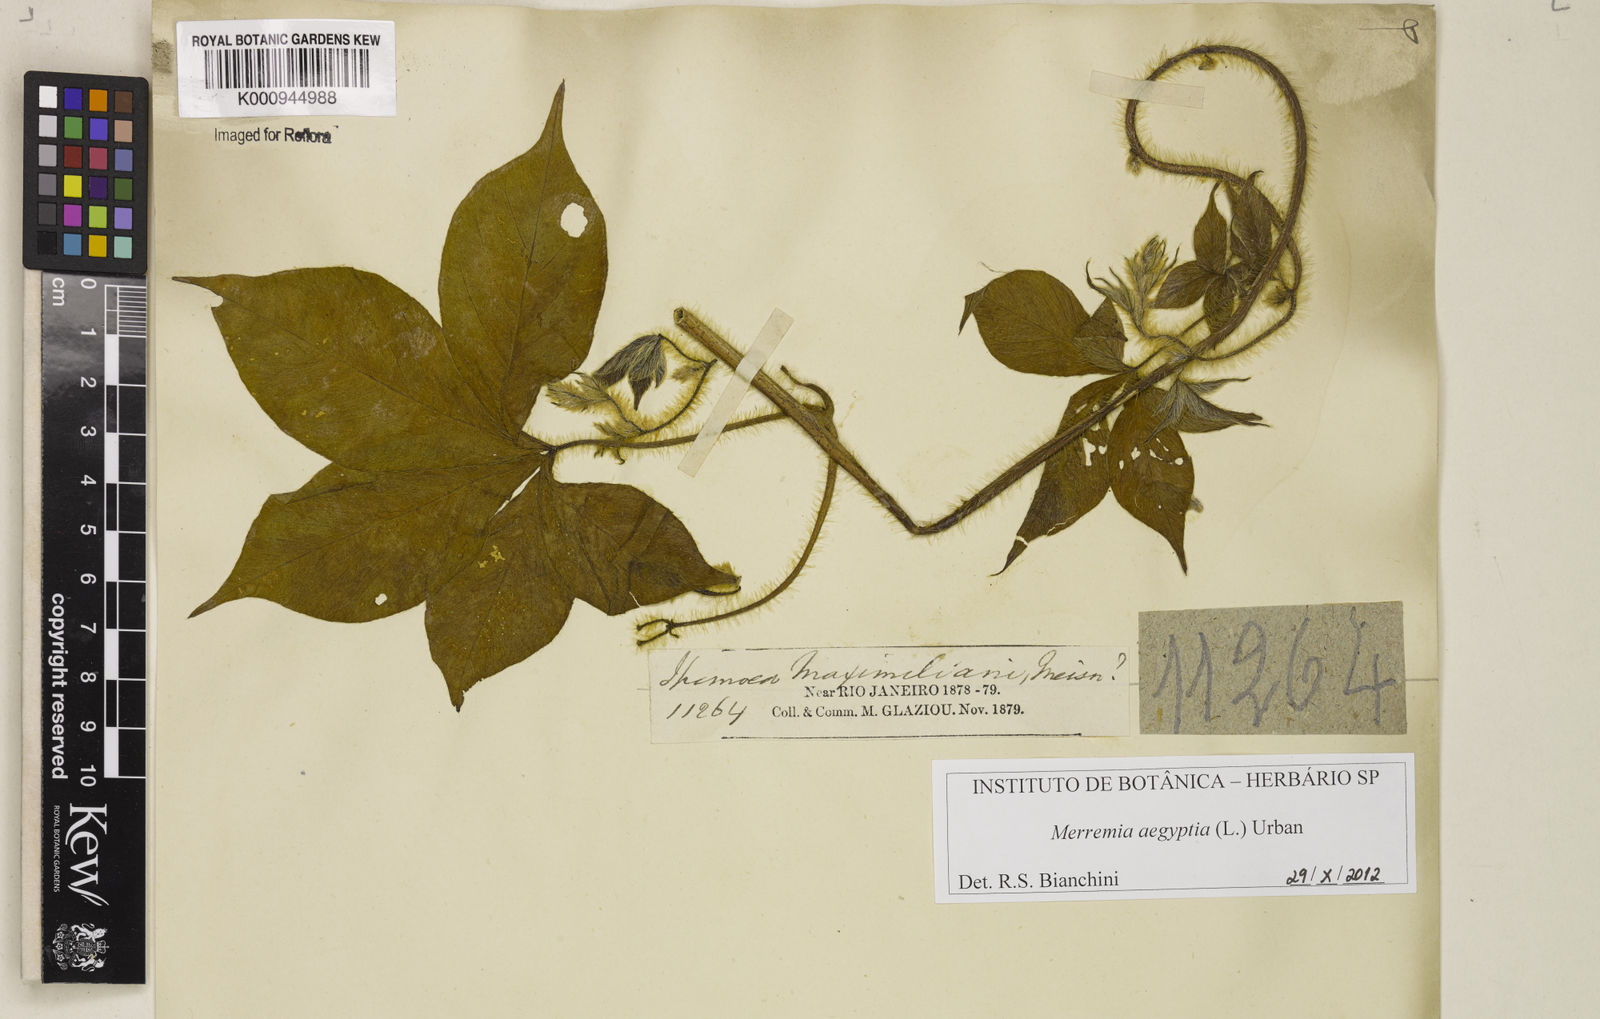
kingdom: Plantae
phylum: Tracheophyta
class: Magnoliopsida
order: Solanales
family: Convolvulaceae
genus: Distimake
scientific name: Distimake aegyptius
